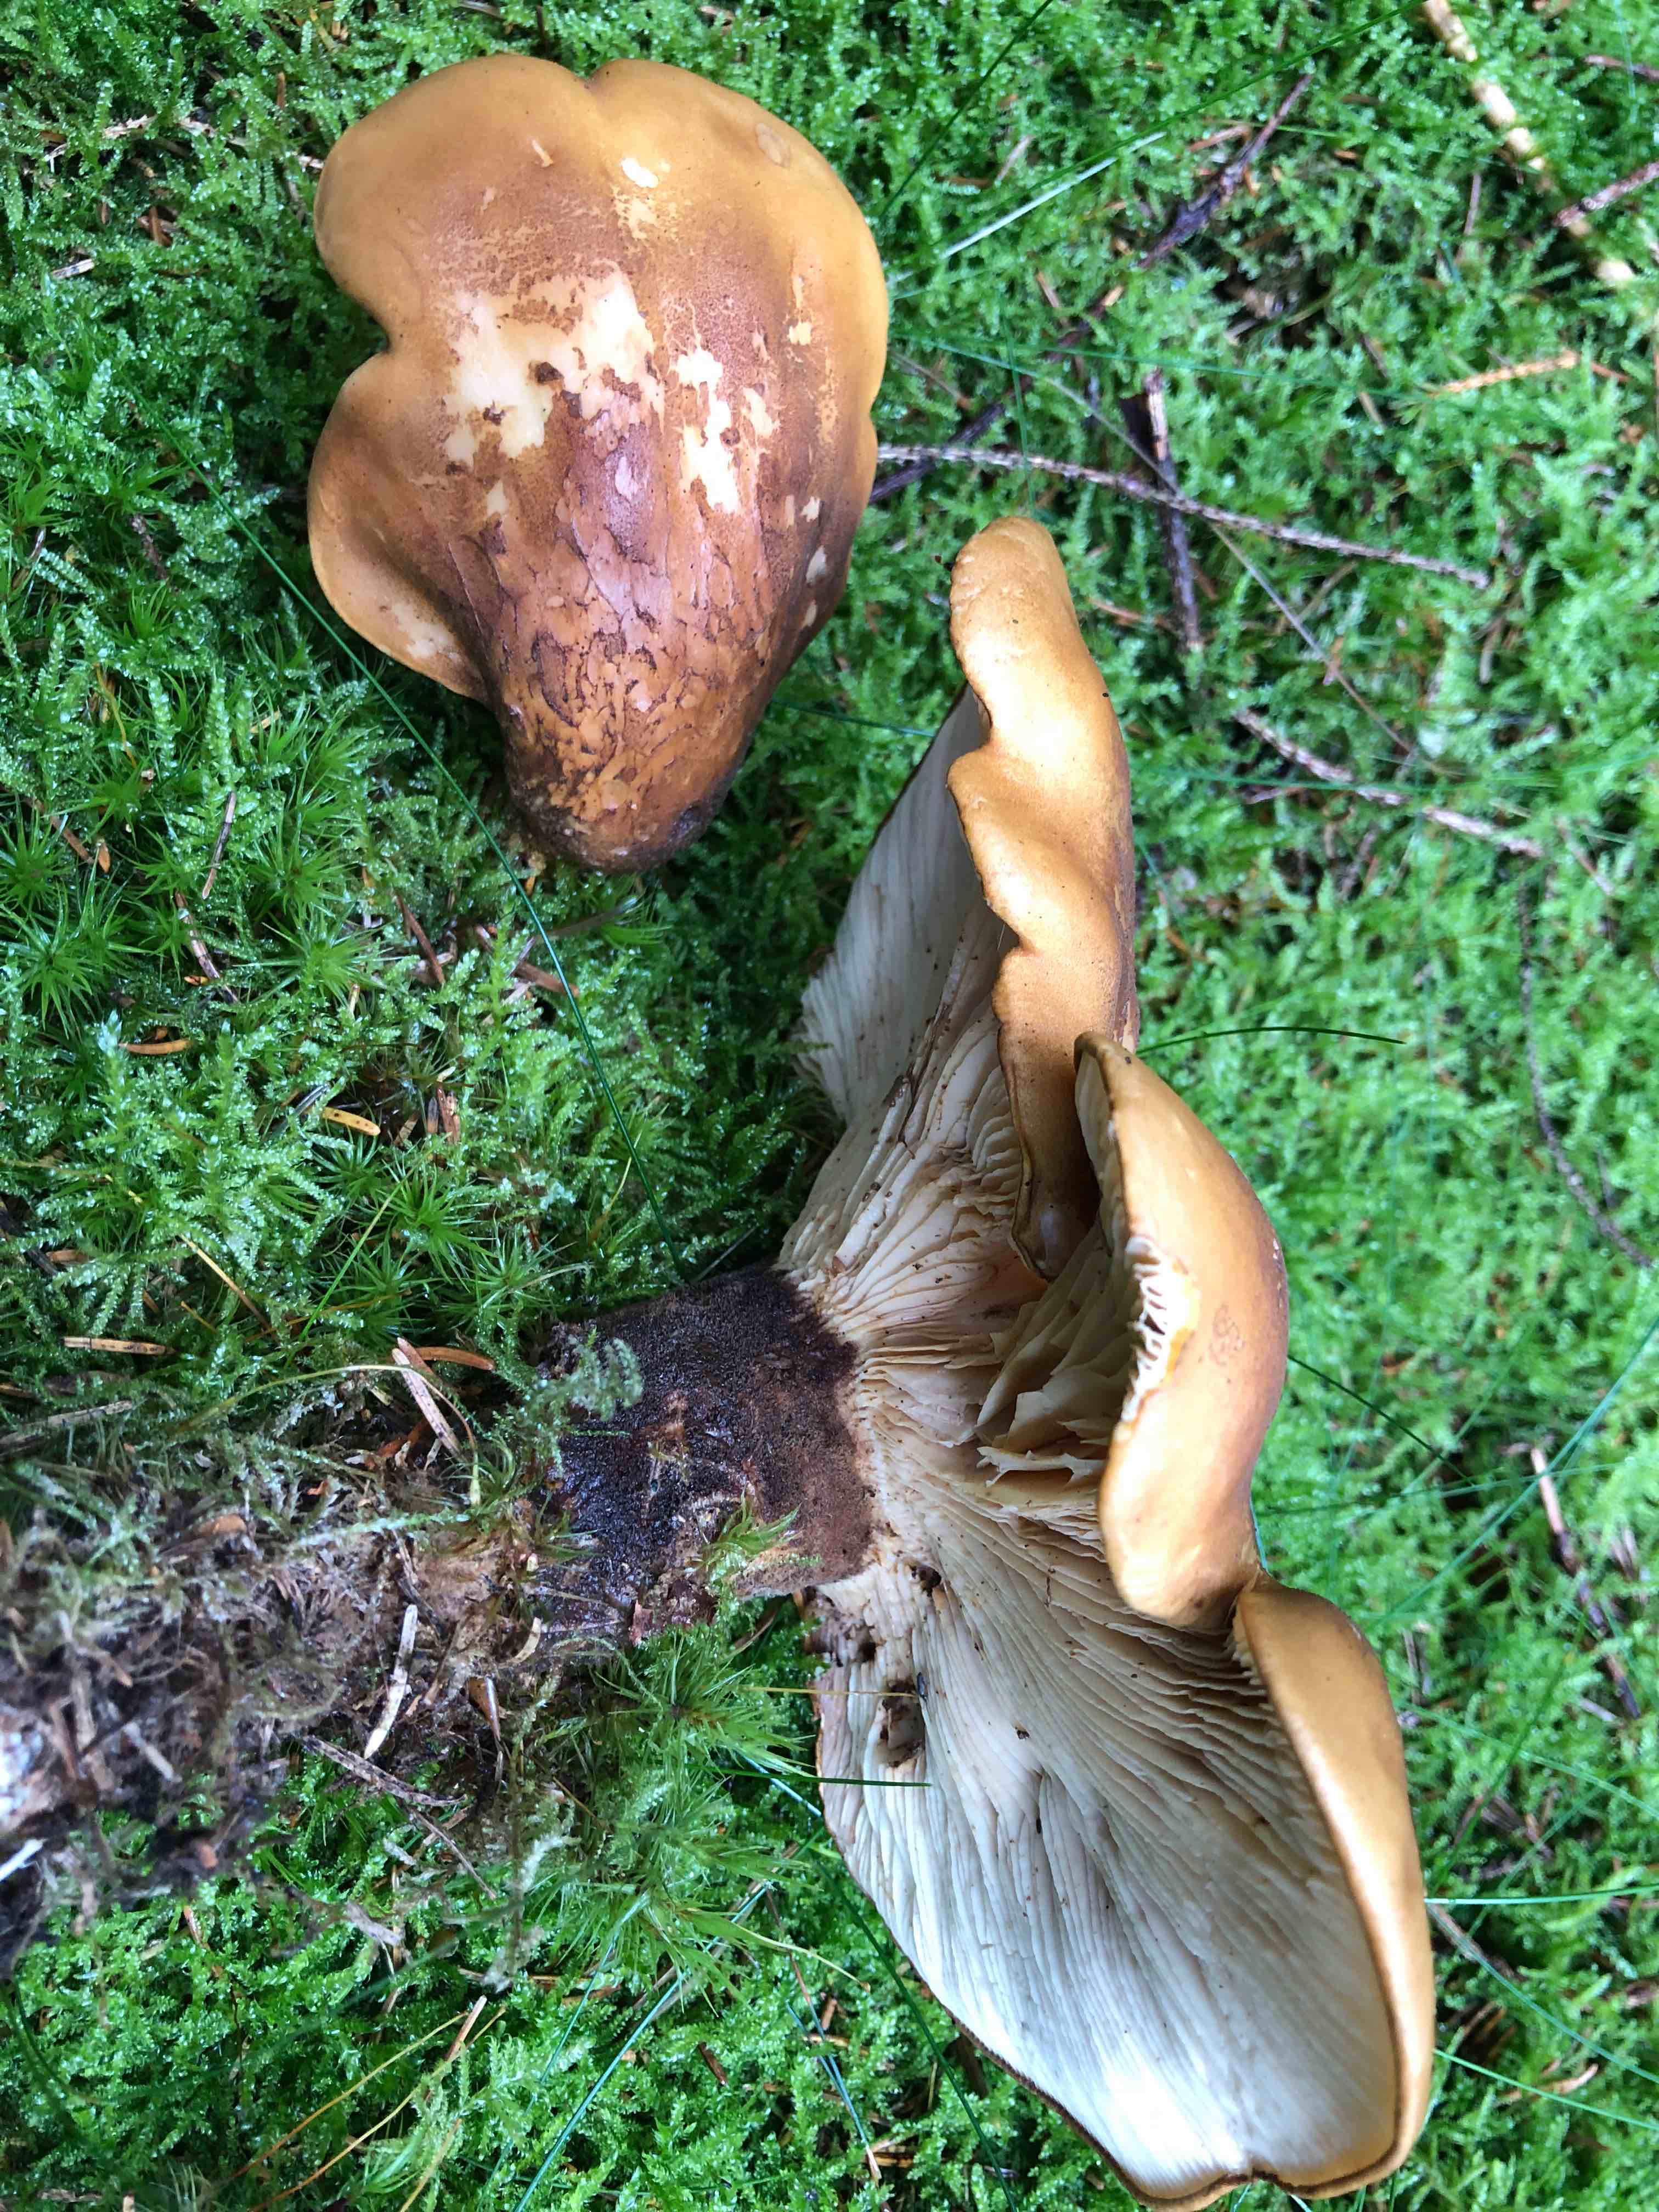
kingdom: Fungi
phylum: Basidiomycota
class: Agaricomycetes
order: Boletales
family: Tapinellaceae
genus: Tapinella
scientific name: Tapinella atrotomentosa
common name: sortfiltet viftesvamp
